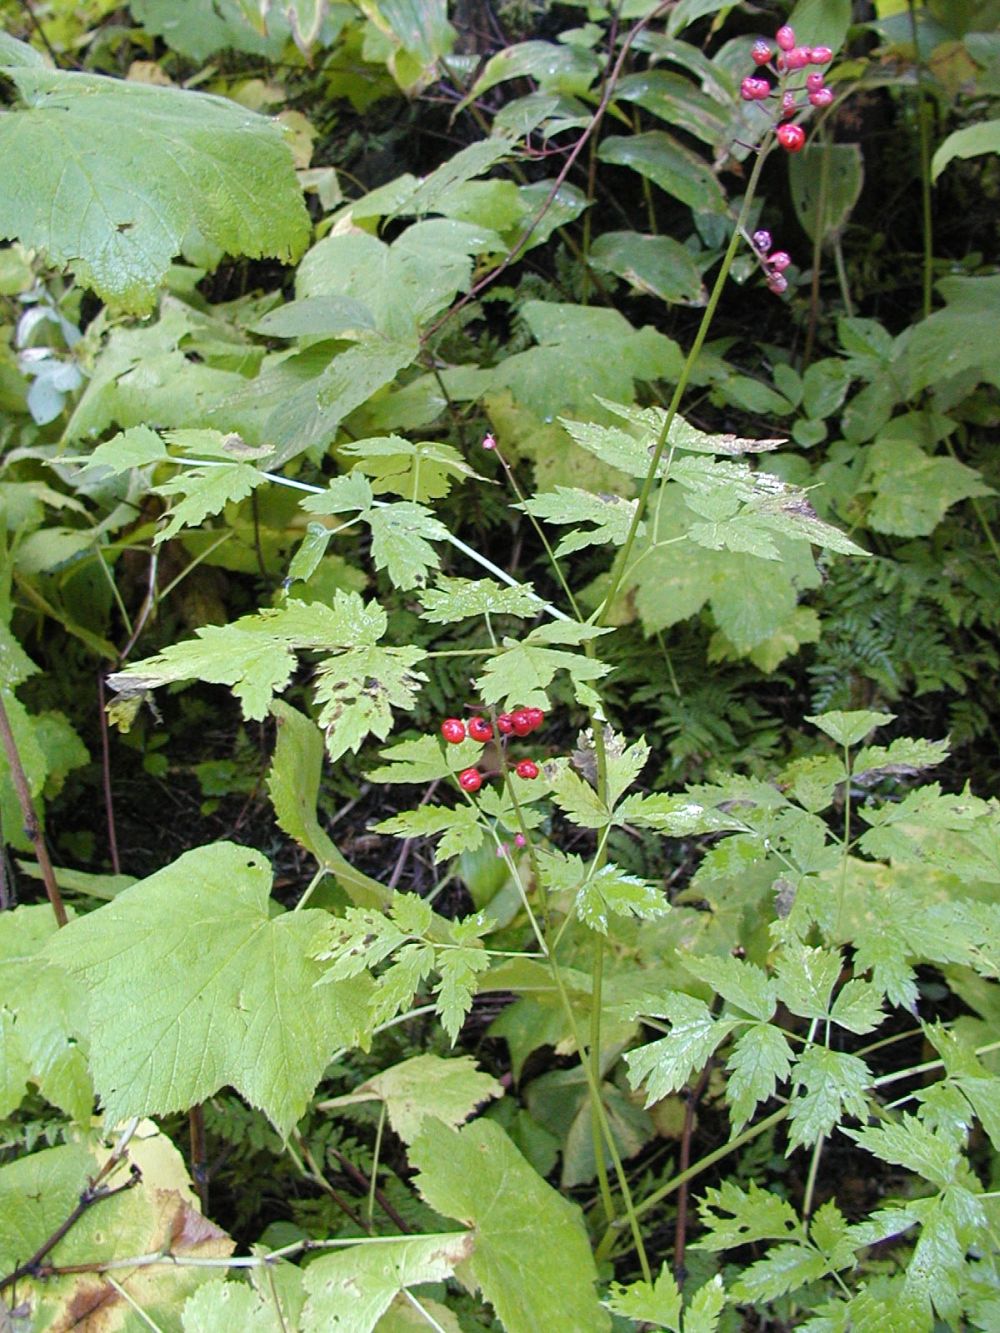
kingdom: Plantae
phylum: Tracheophyta
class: Magnoliopsida
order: Ranunculales
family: Ranunculaceae
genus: Actaea
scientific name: Actaea rubra
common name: Red baneberry
